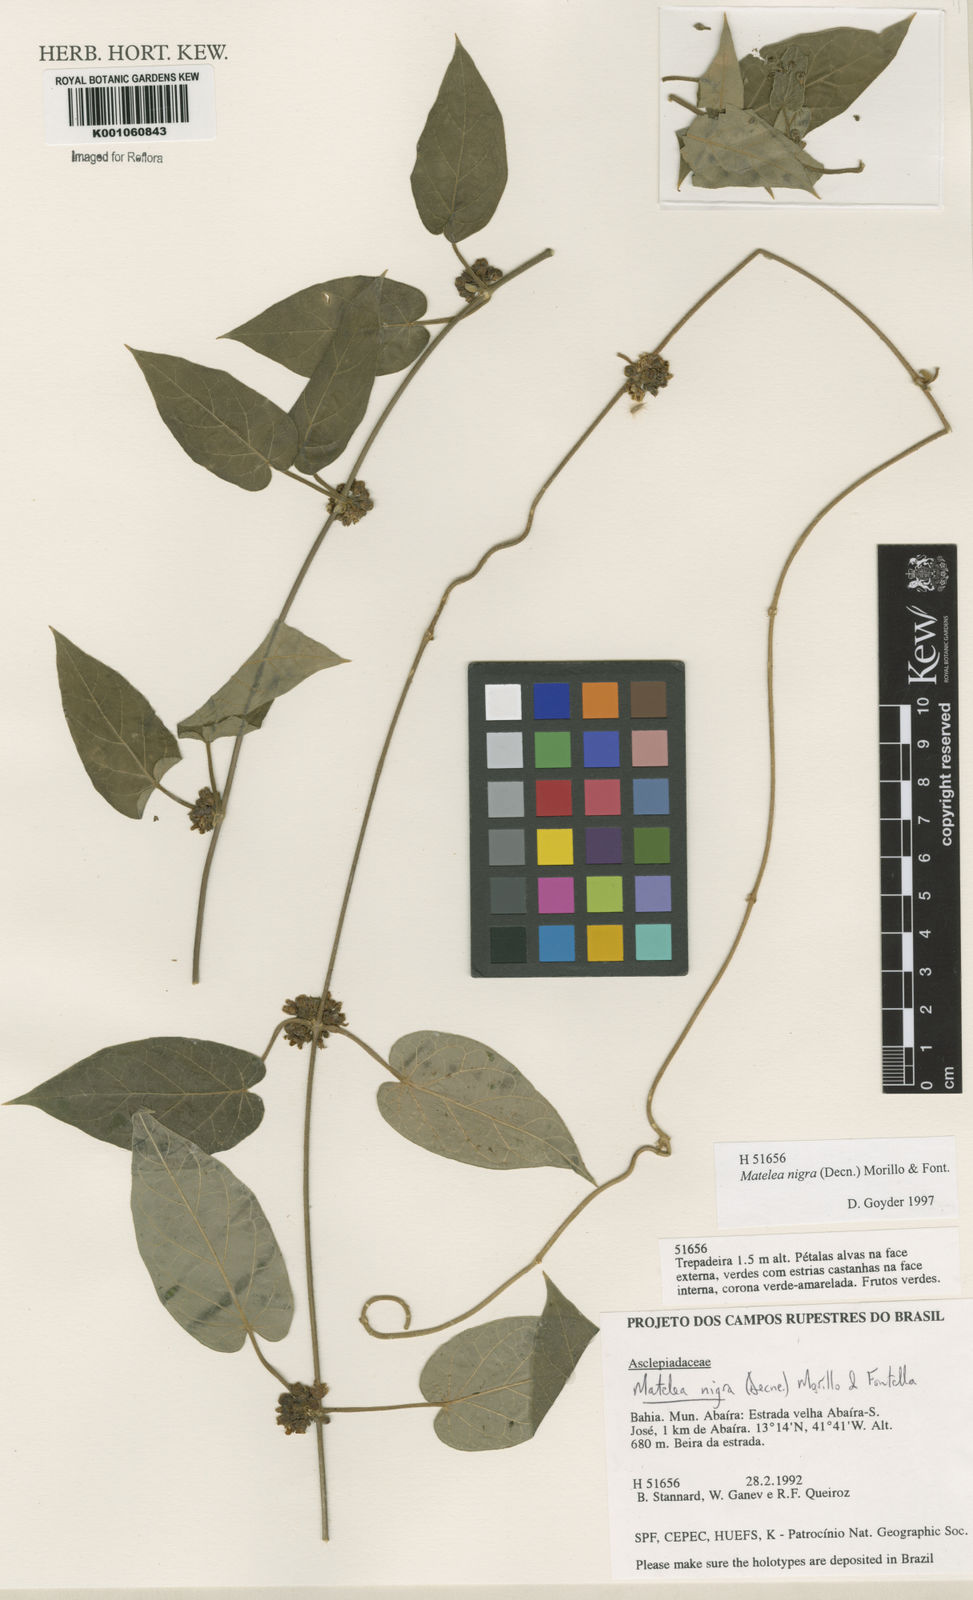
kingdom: Plantae
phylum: Tracheophyta
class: Magnoliopsida
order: Gentianales
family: Apocynaceae
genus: Ibatia
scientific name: Ibatia nigra
